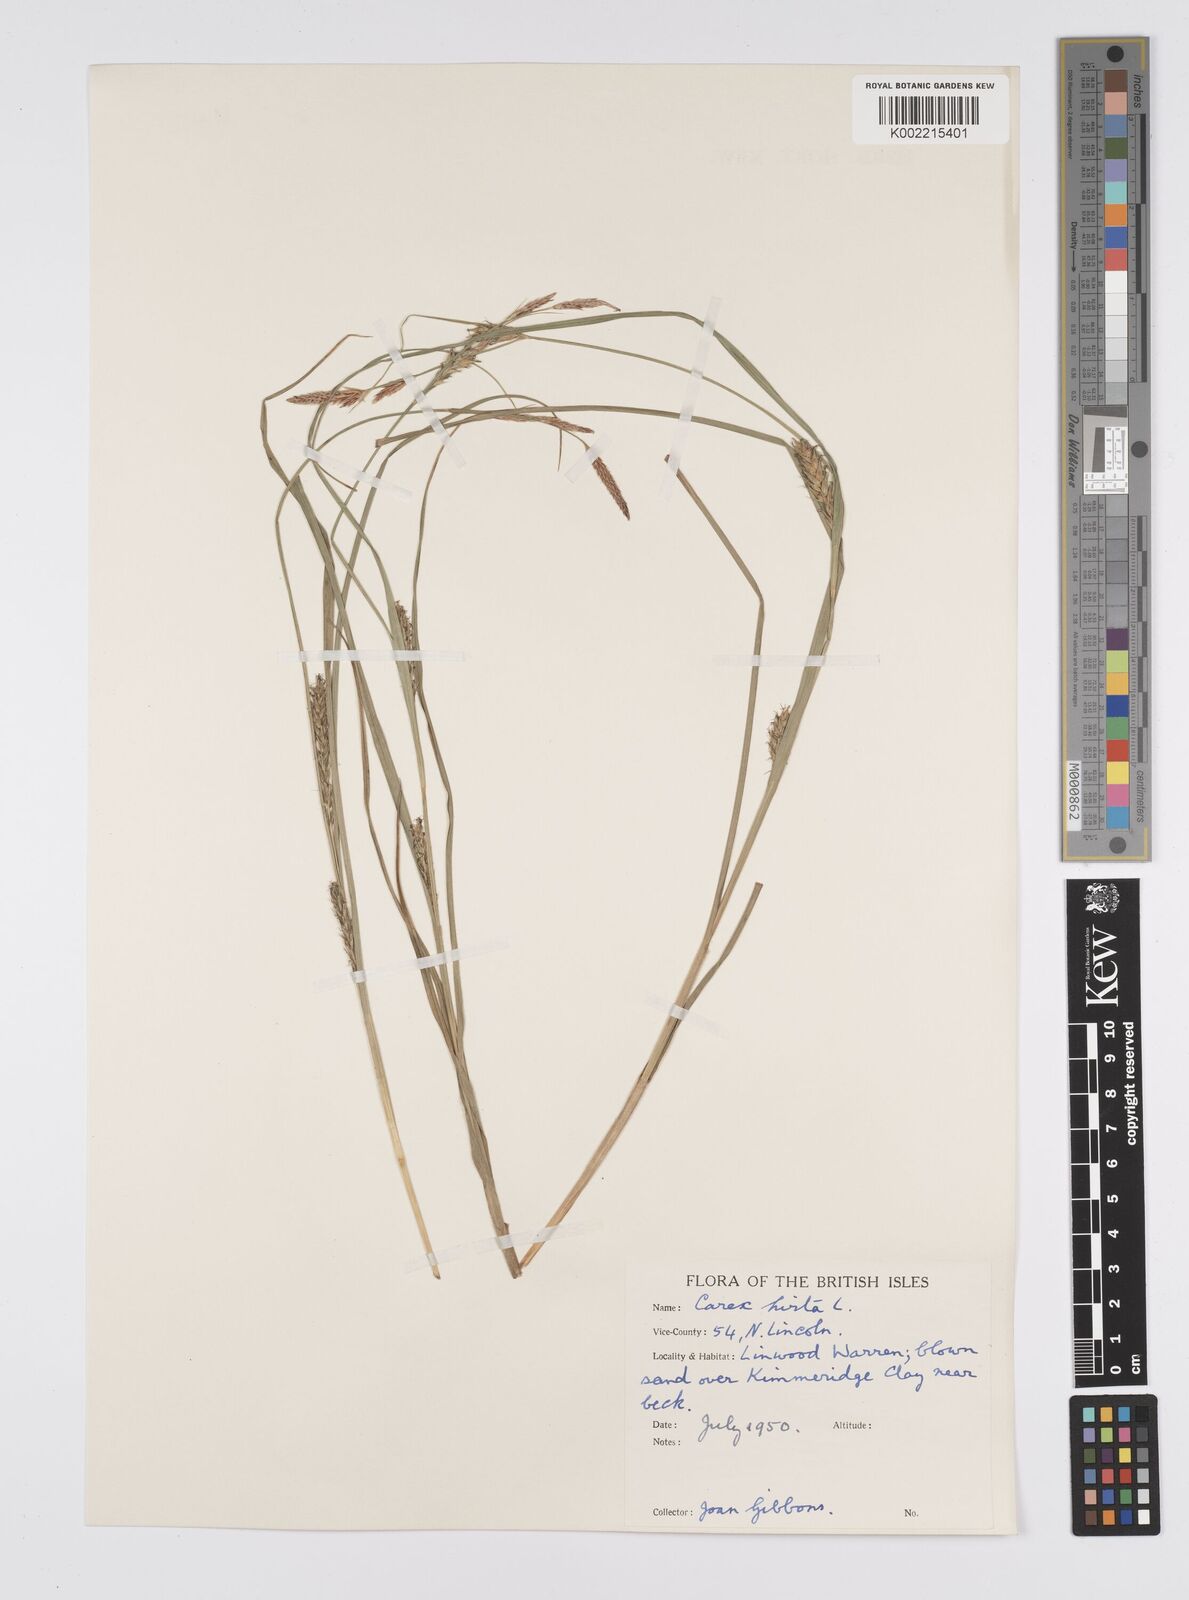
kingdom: Plantae
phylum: Tracheophyta
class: Liliopsida
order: Poales
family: Cyperaceae
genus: Carex
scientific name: Carex hirta
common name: Hairy sedge
